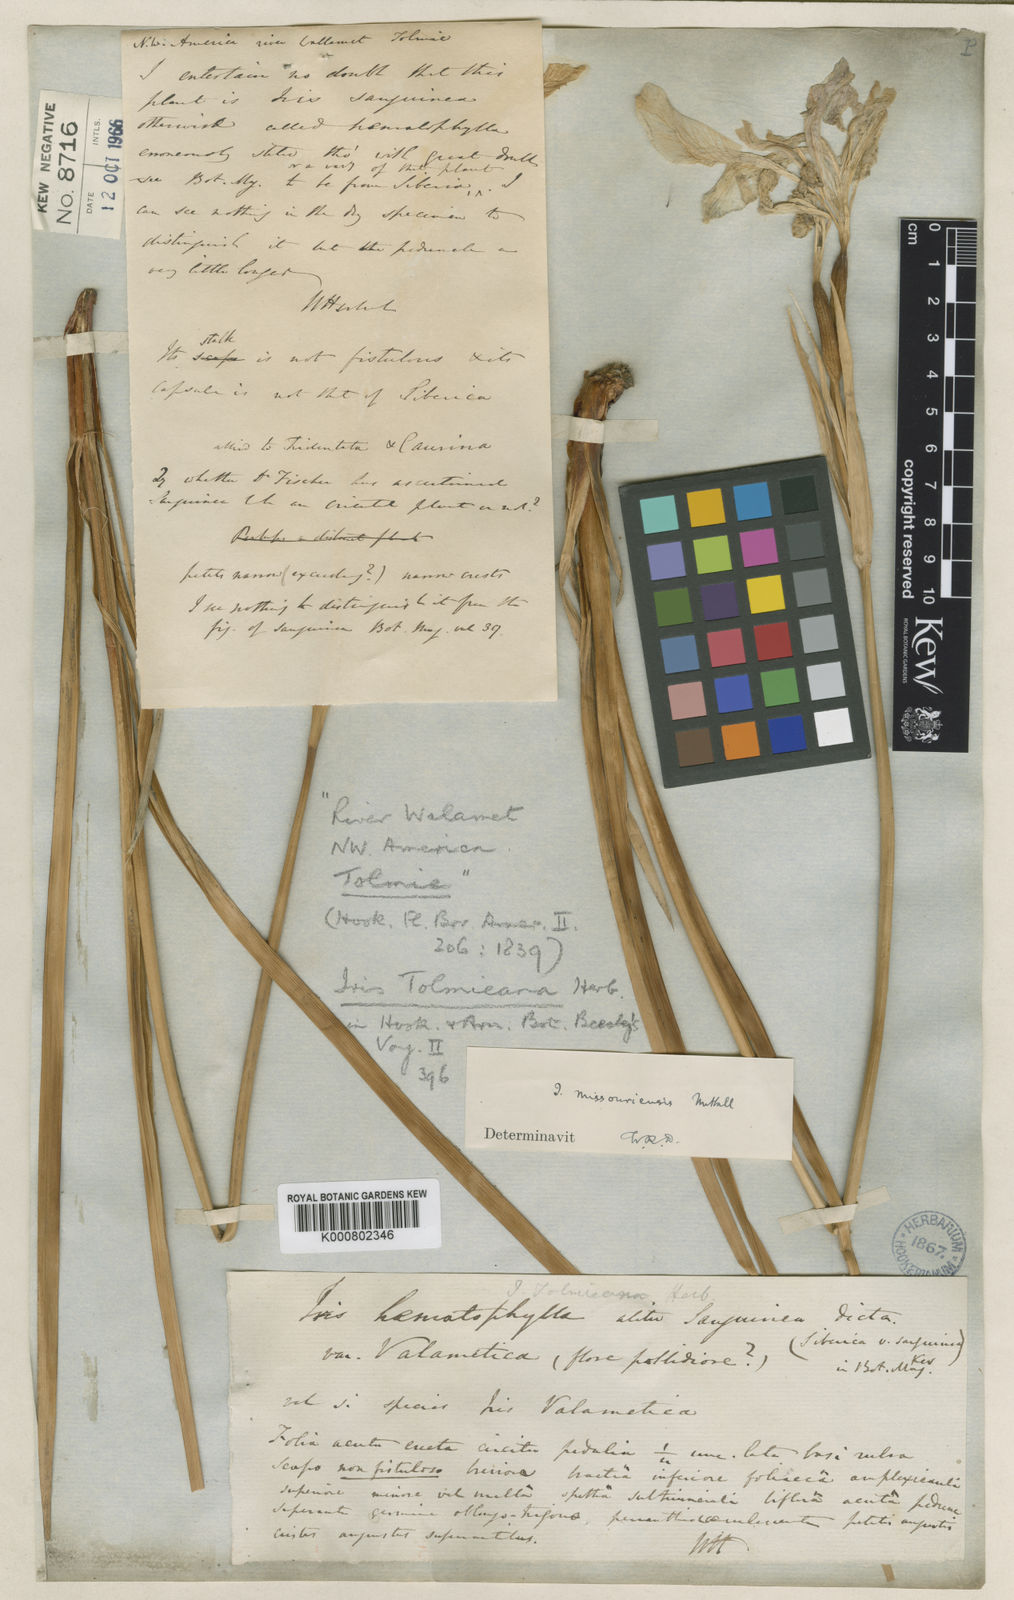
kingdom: Plantae
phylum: Tracheophyta
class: Liliopsida
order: Asparagales
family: Iridaceae
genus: Iris
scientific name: Iris missouriensis
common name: Rocky mountain iris
